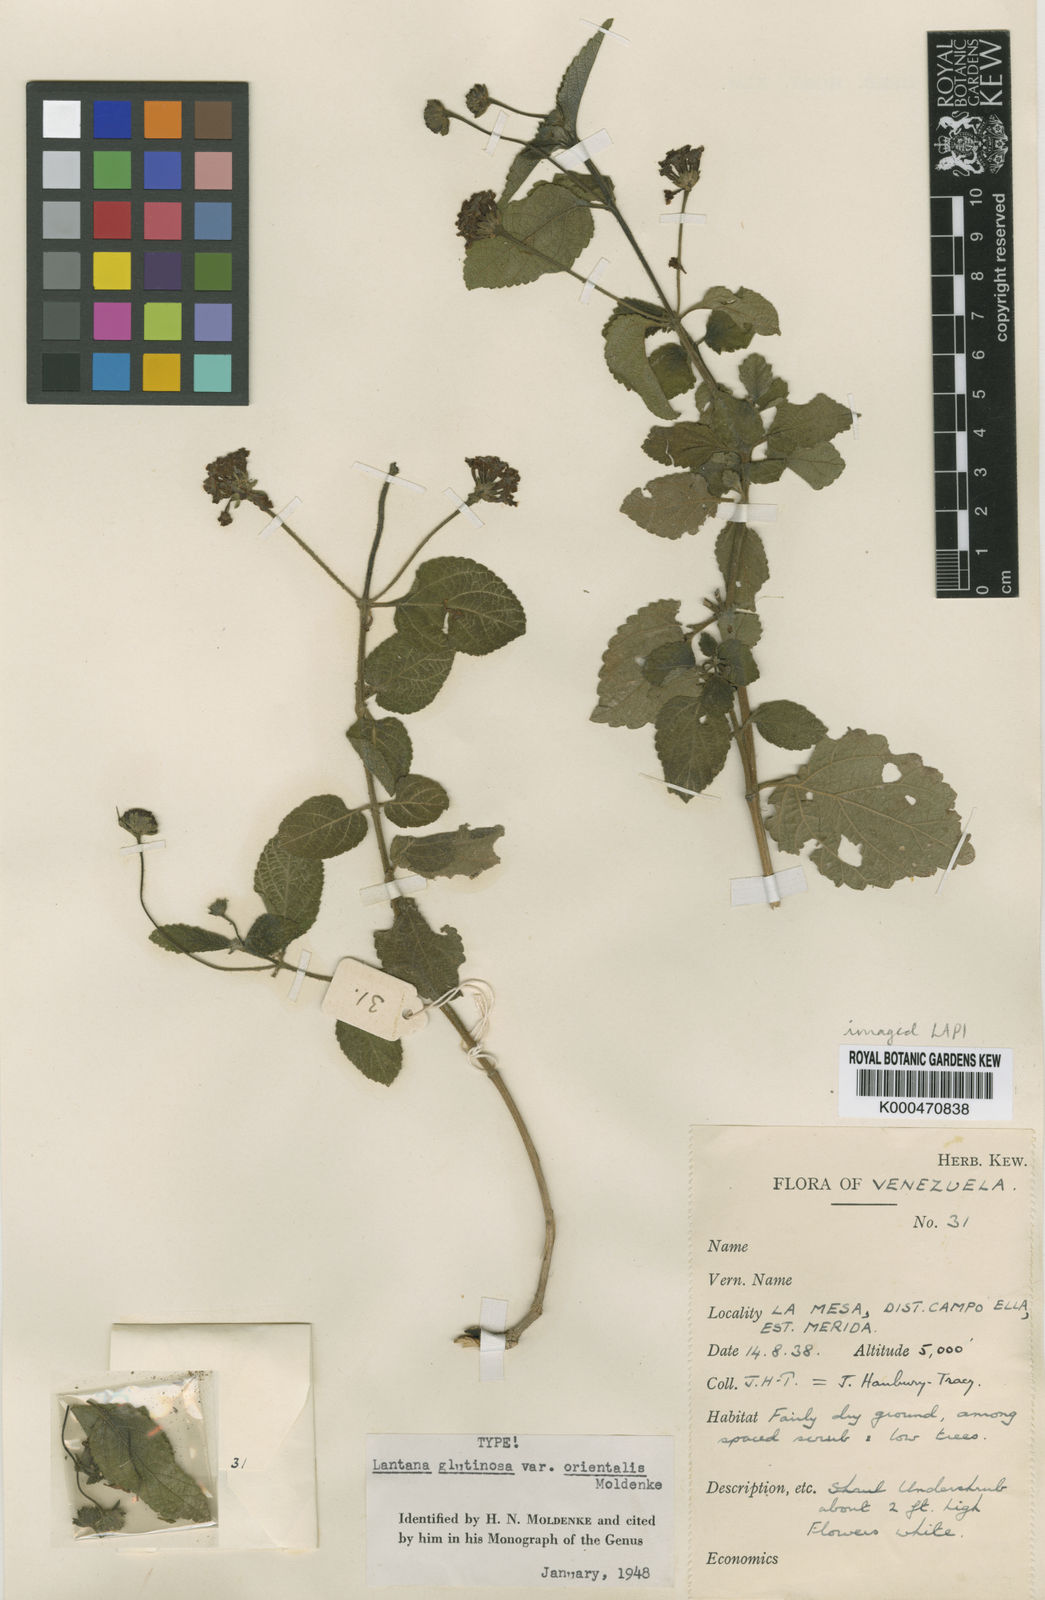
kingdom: Plantae
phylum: Tracheophyta
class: Magnoliopsida
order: Lamiales
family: Verbenaceae
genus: Lantana
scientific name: Lantana horrida
